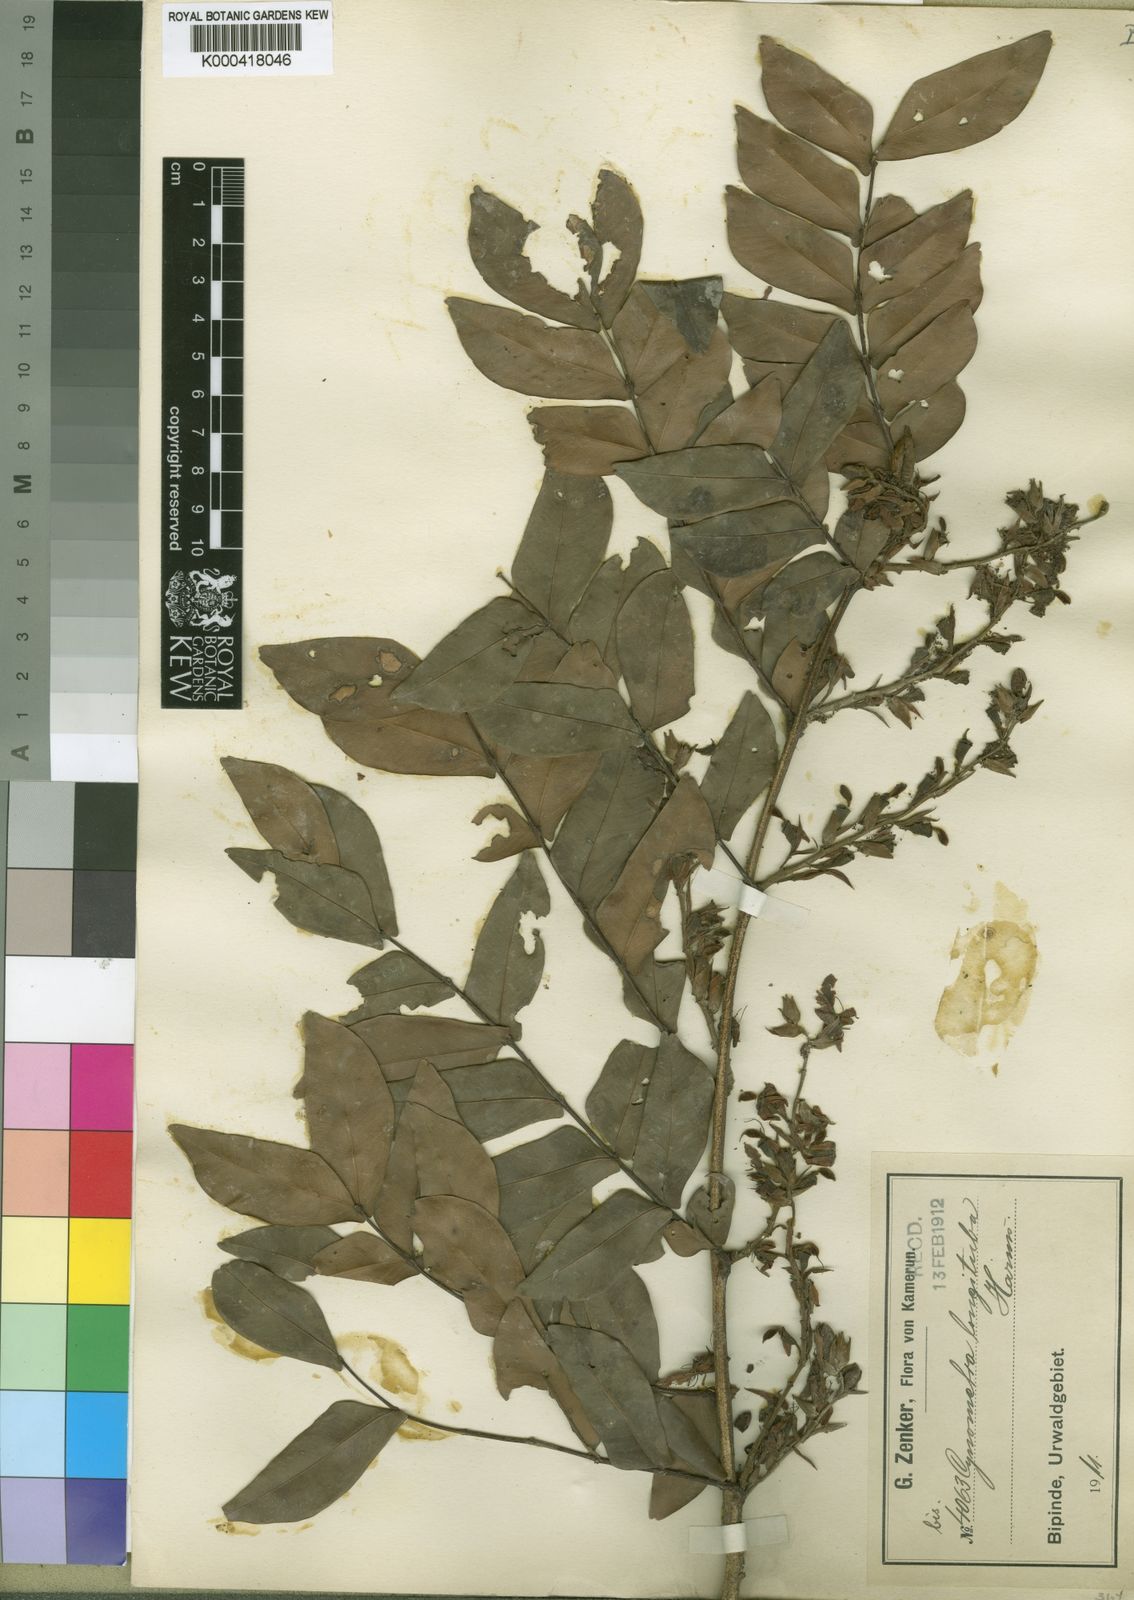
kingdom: Plantae
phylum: Tracheophyta
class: Magnoliopsida
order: Fabales
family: Fabaceae
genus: Plagiosiphon
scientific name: Plagiosiphon
